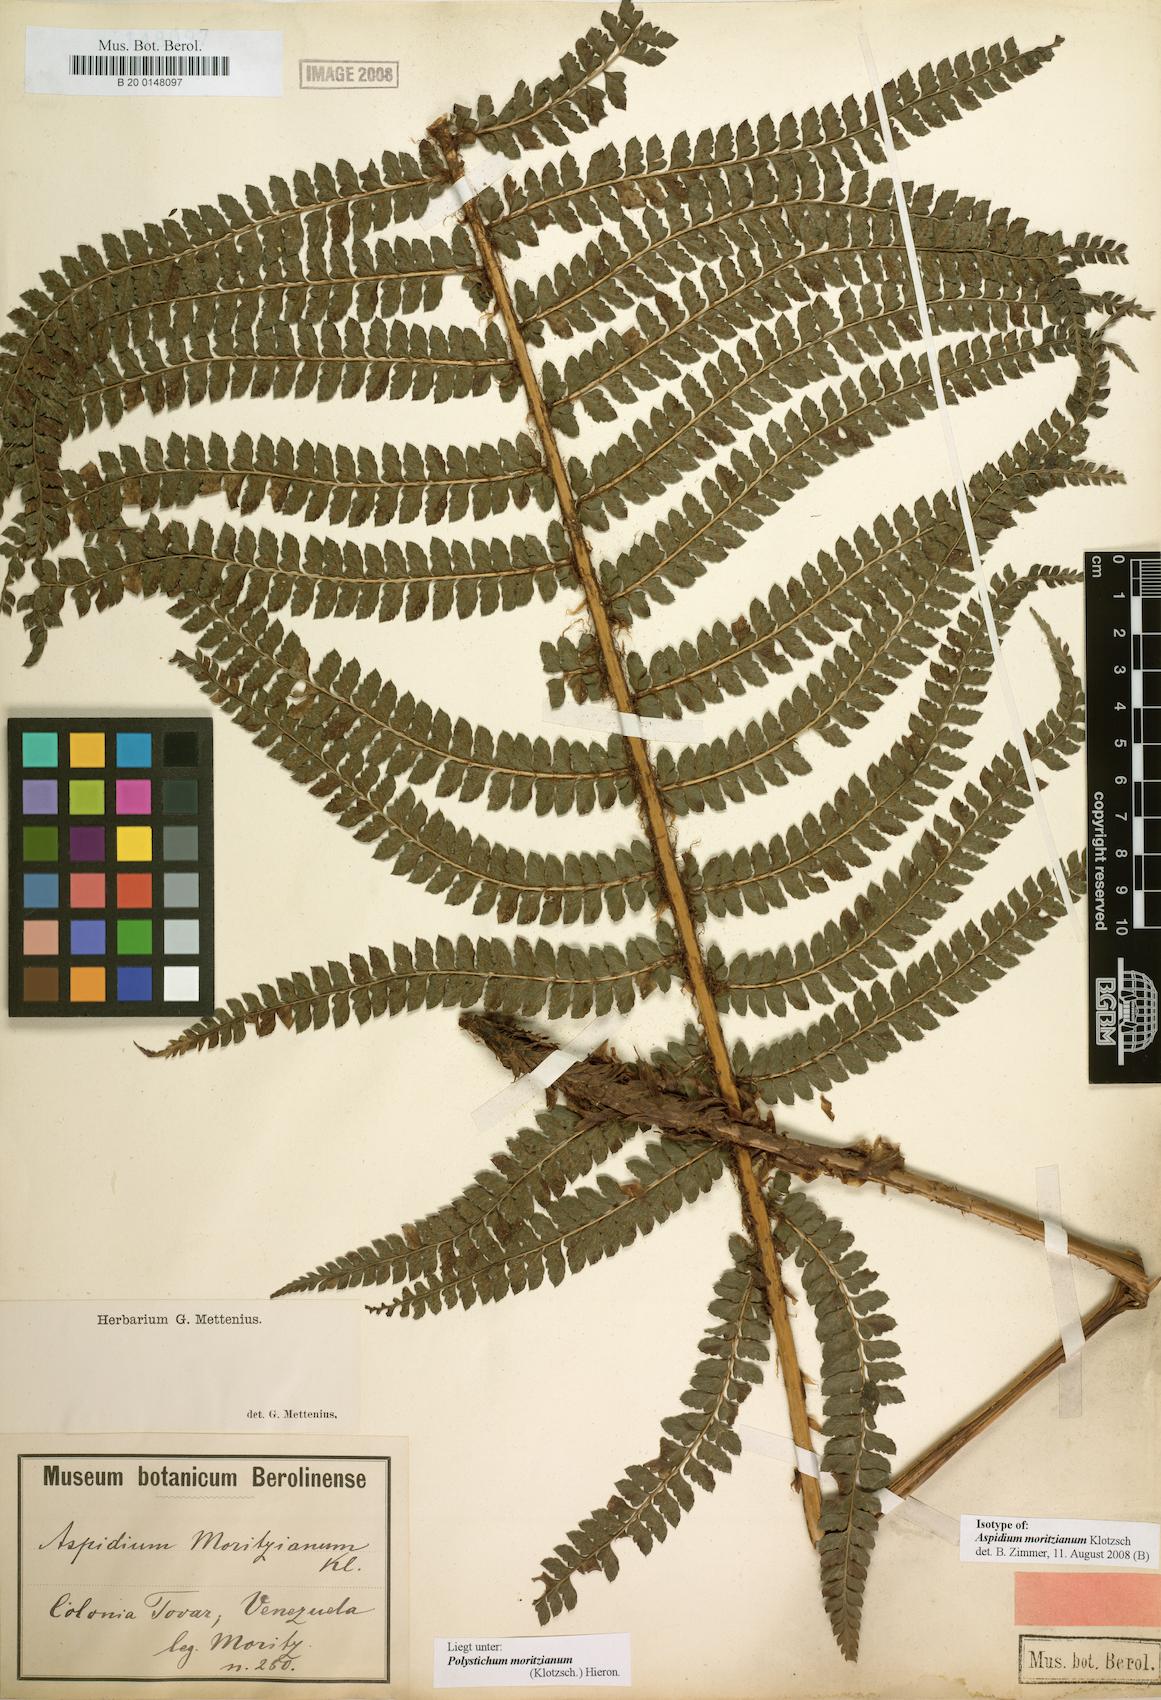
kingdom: Plantae
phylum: Tracheophyta
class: Polypodiopsida
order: Polypodiales
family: Dryopteridaceae
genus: Polystichum
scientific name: Polystichum muricatum
